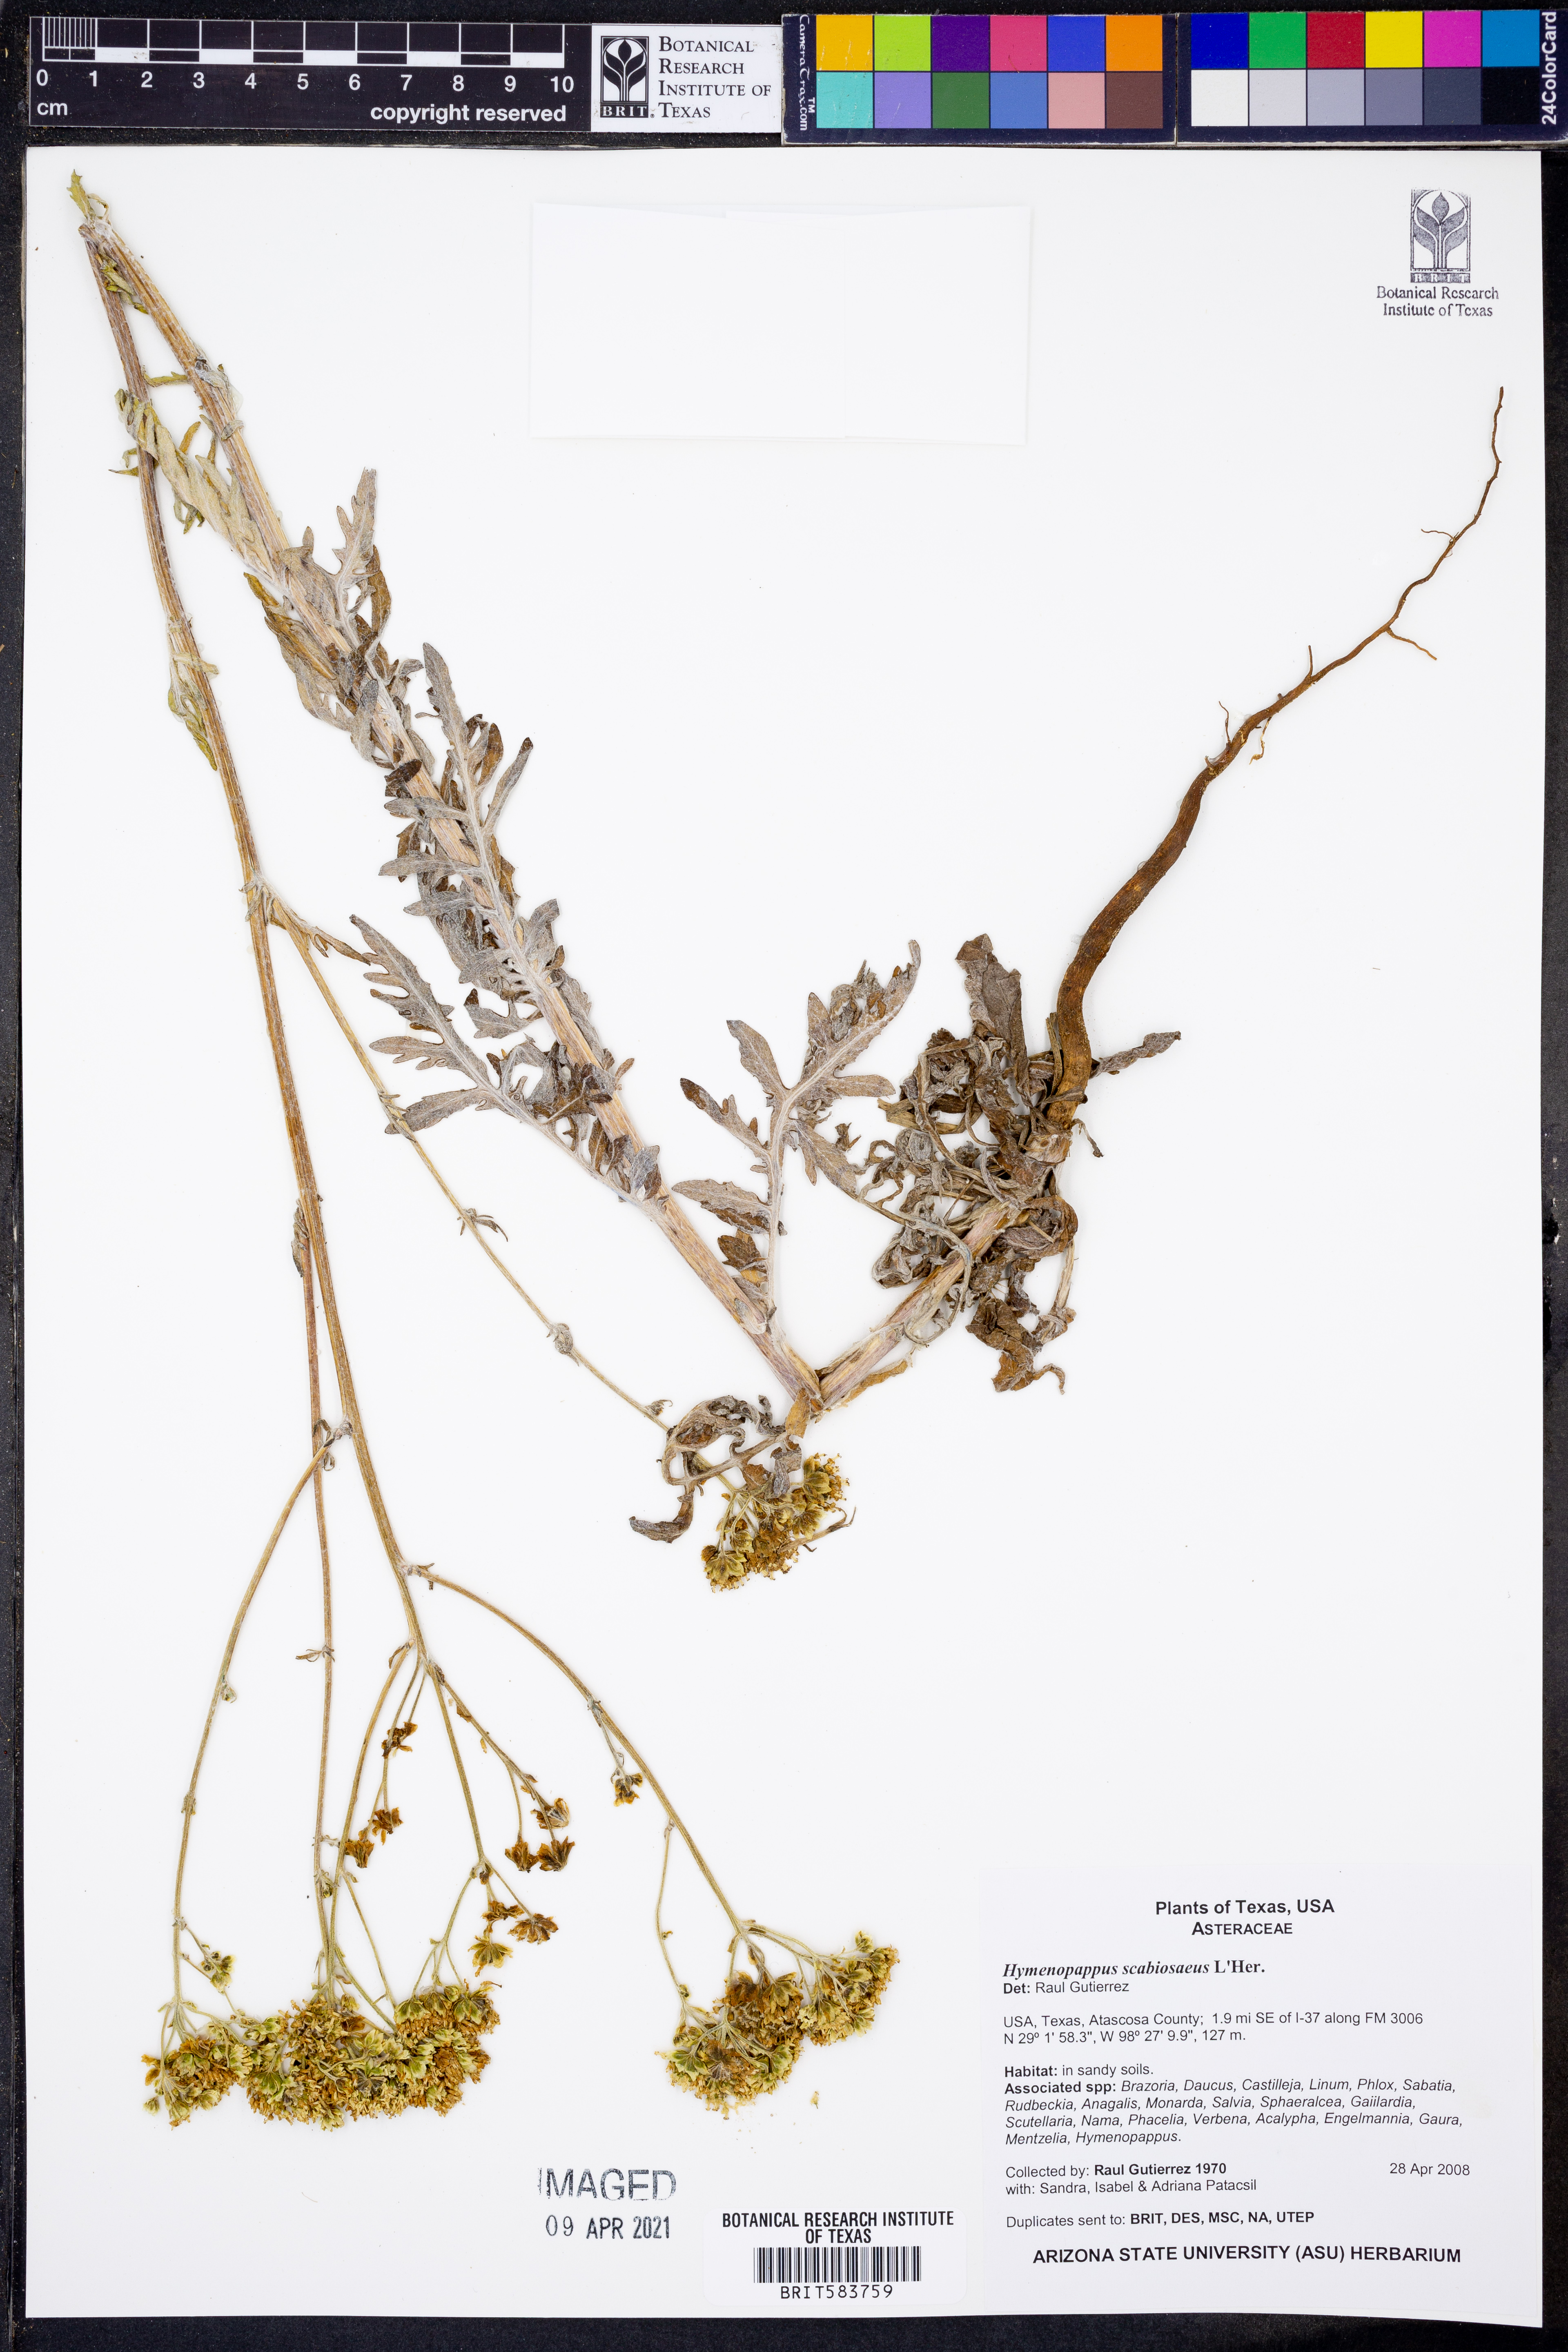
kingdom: Plantae
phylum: Tracheophyta
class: Magnoliopsida
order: Asterales
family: Asteraceae
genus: Hymenopappus
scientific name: Hymenopappus scabiosaeus
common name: Carolina woollywhite
